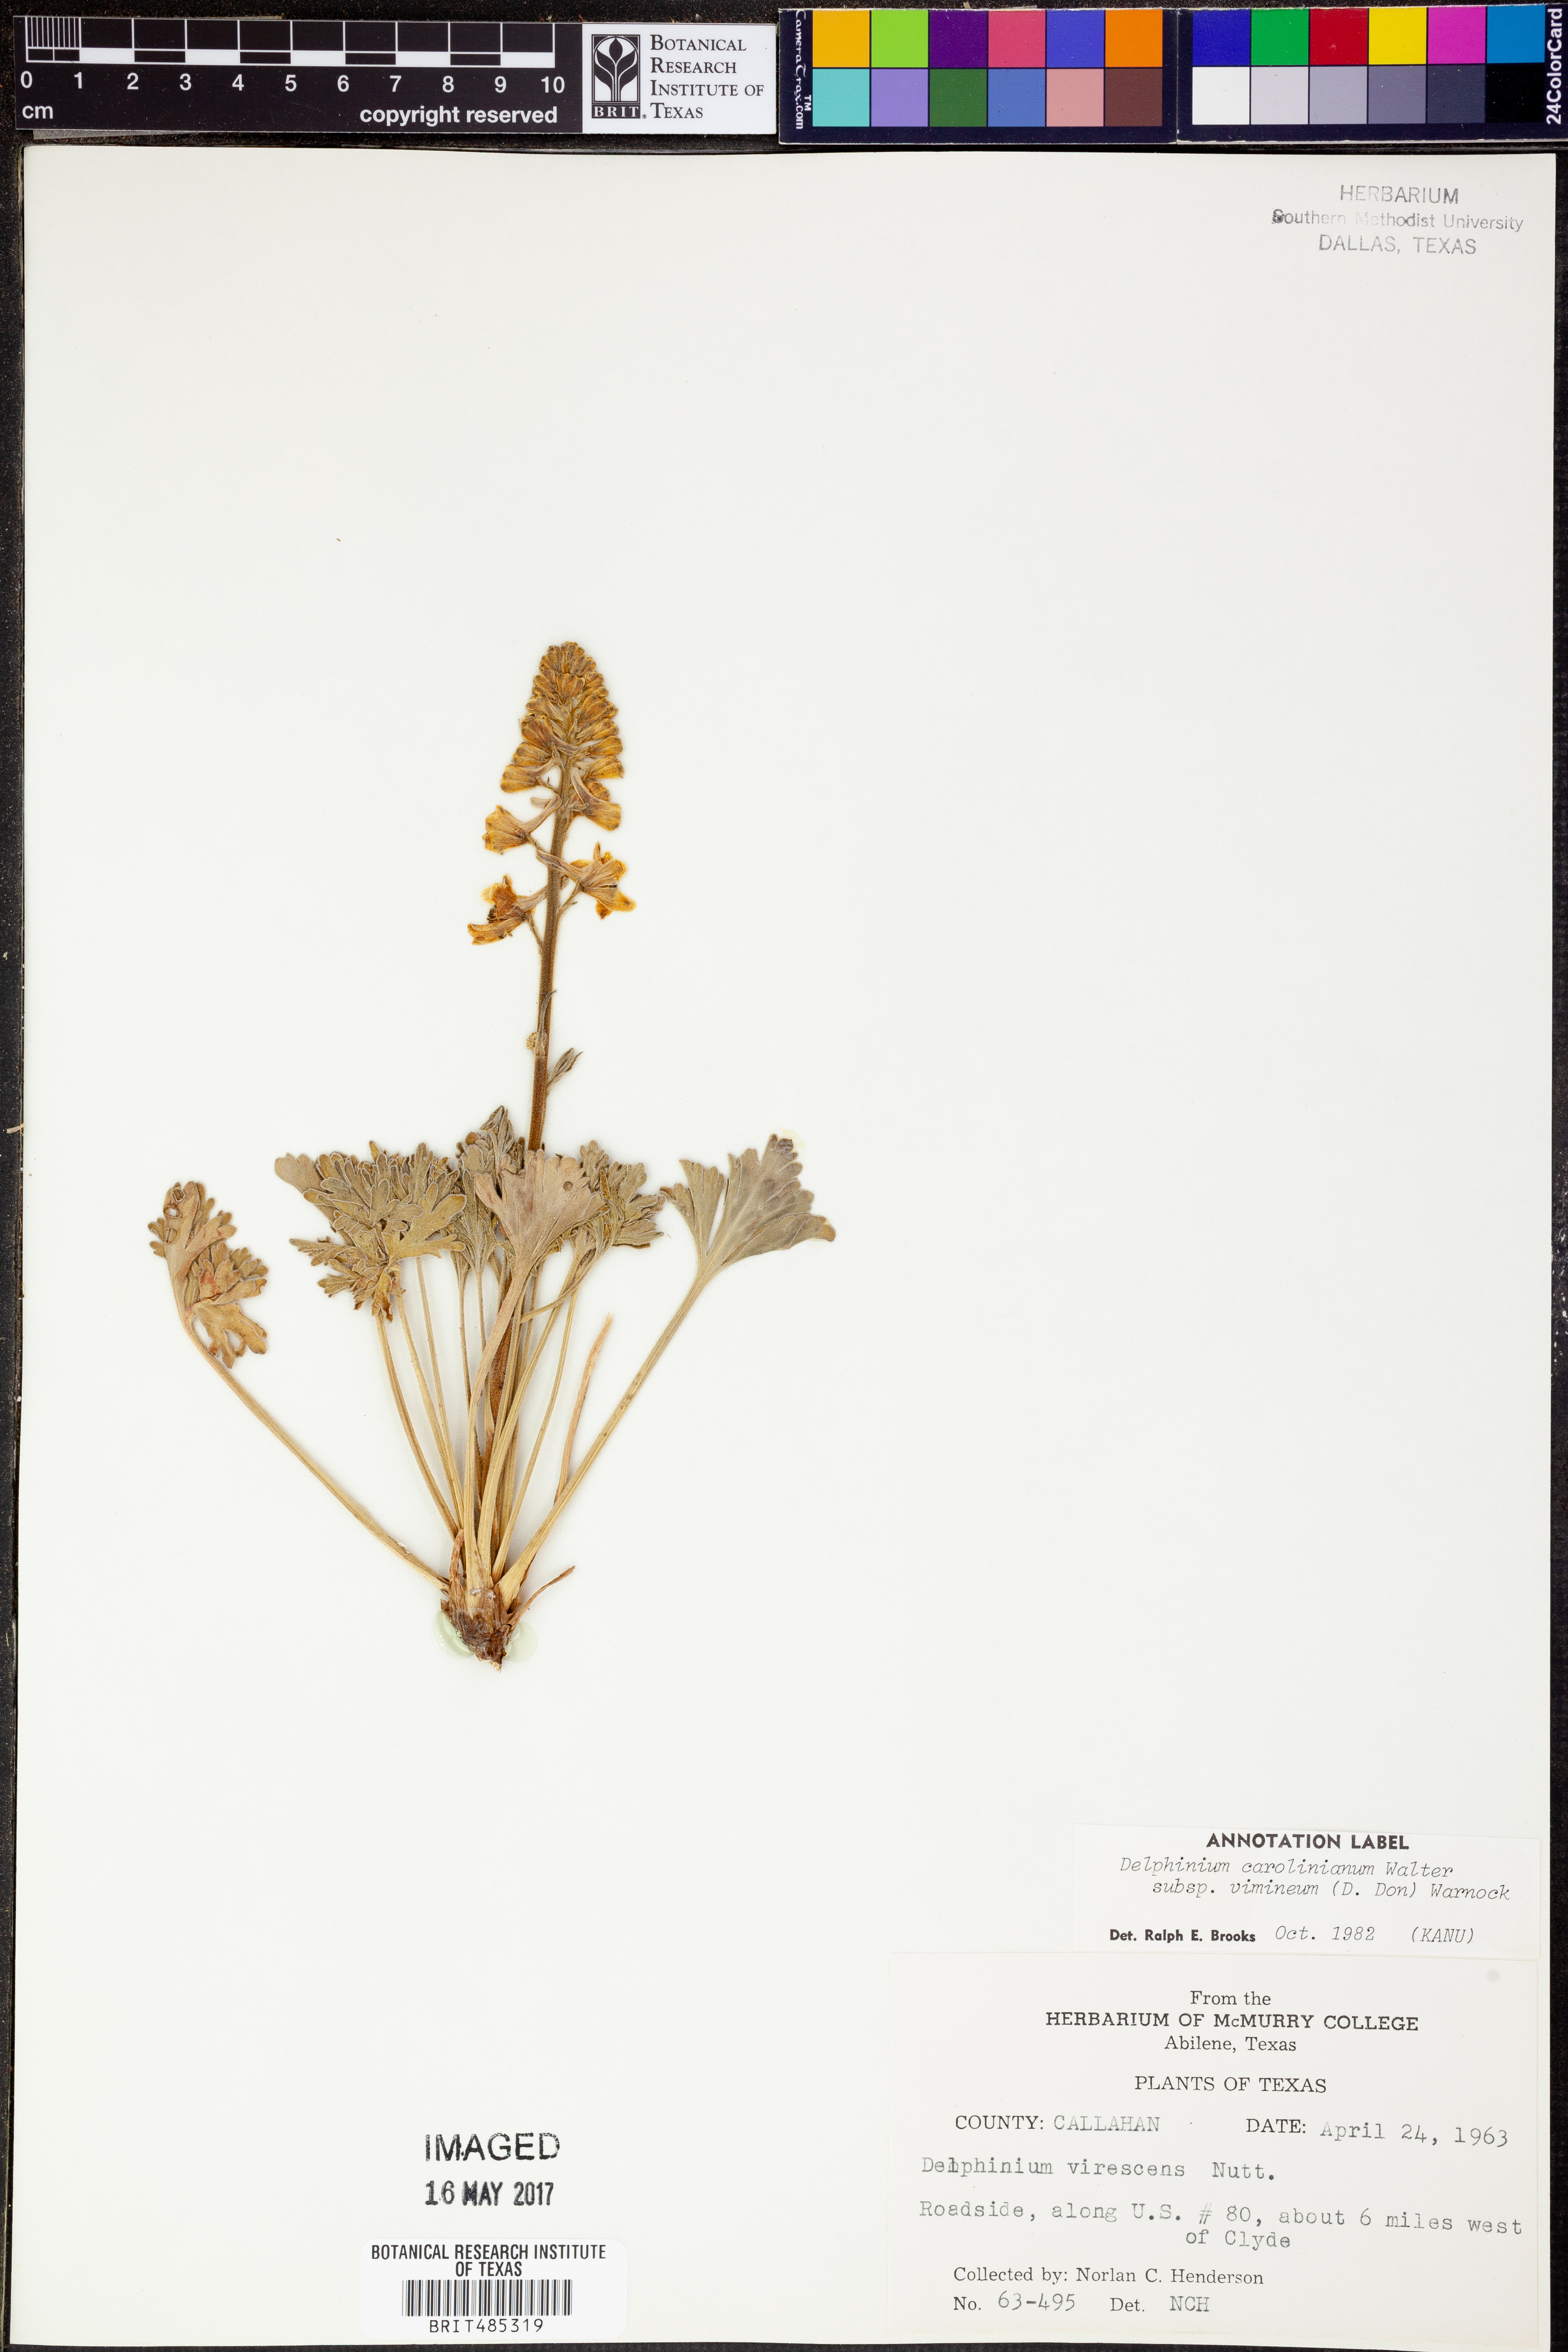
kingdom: Plantae
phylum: Tracheophyta
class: Magnoliopsida
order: Ranunculales
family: Ranunculaceae
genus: Delphinium
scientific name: Delphinium carolinianum
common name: Carolina larkspur
